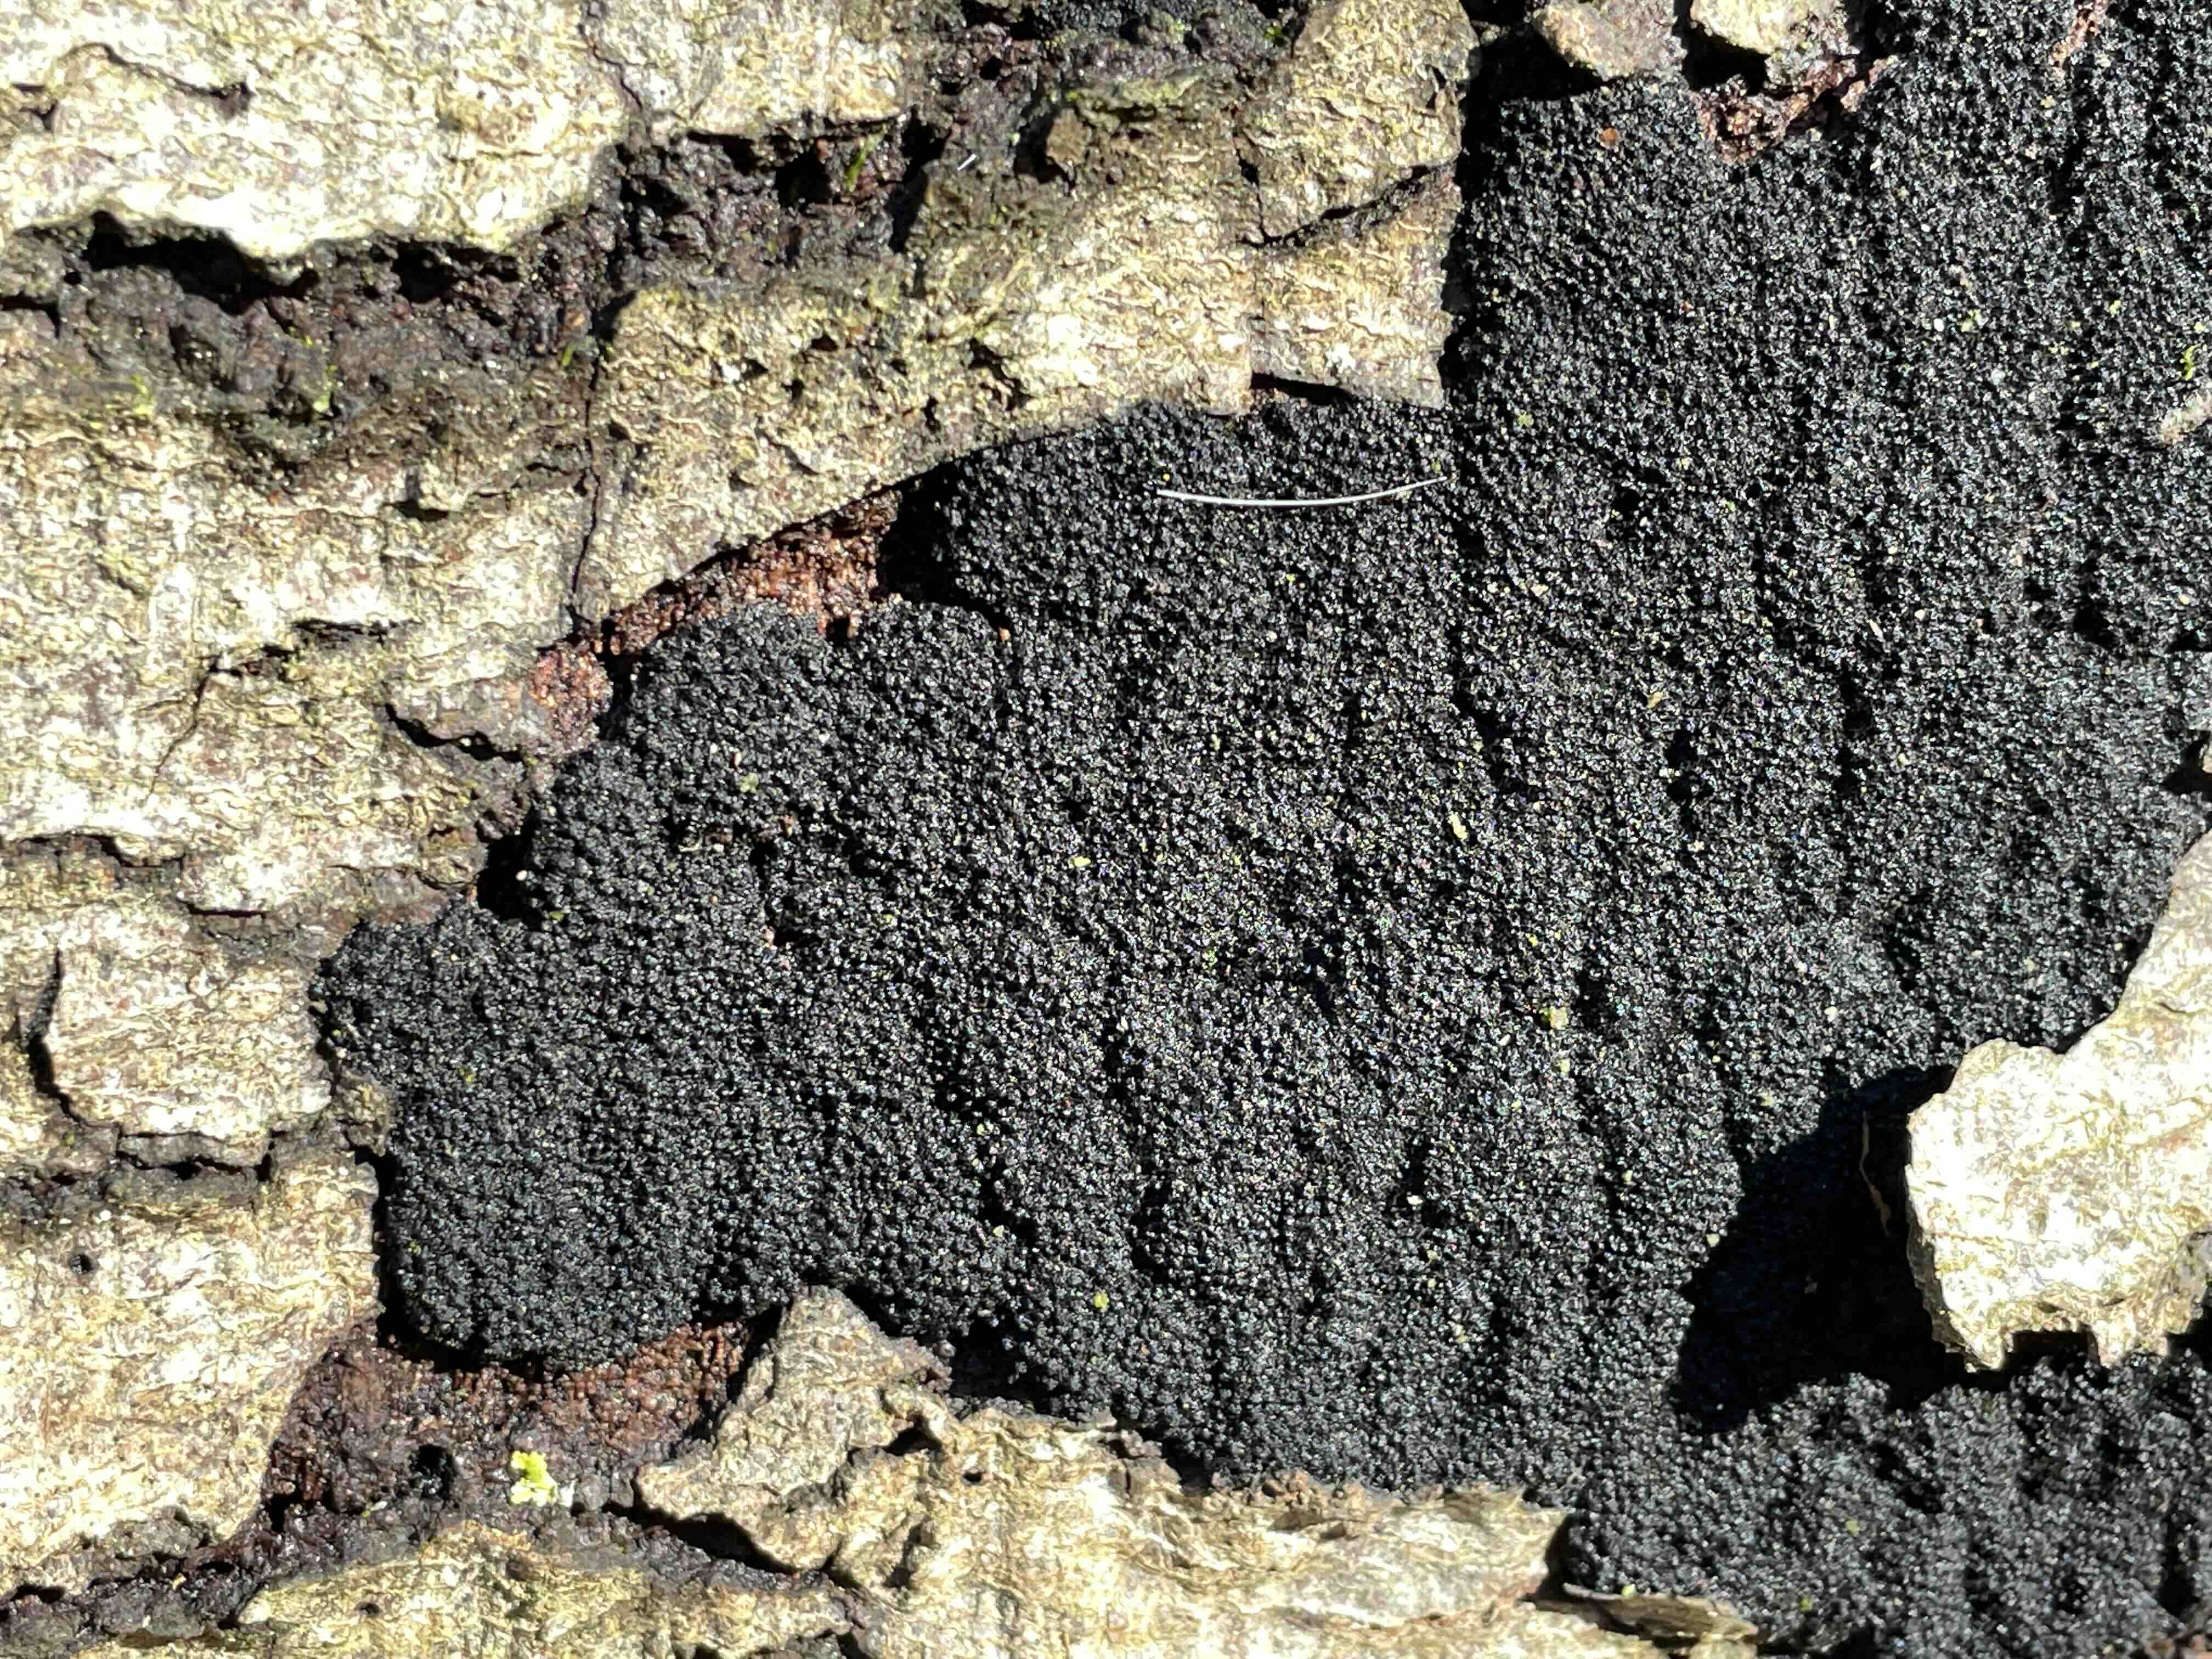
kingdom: Fungi
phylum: Ascomycota
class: Sordariomycetes
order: Xylariales
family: Diatrypaceae
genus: Eutypa
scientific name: Eutypa spinosa
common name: grov kulskorpe
